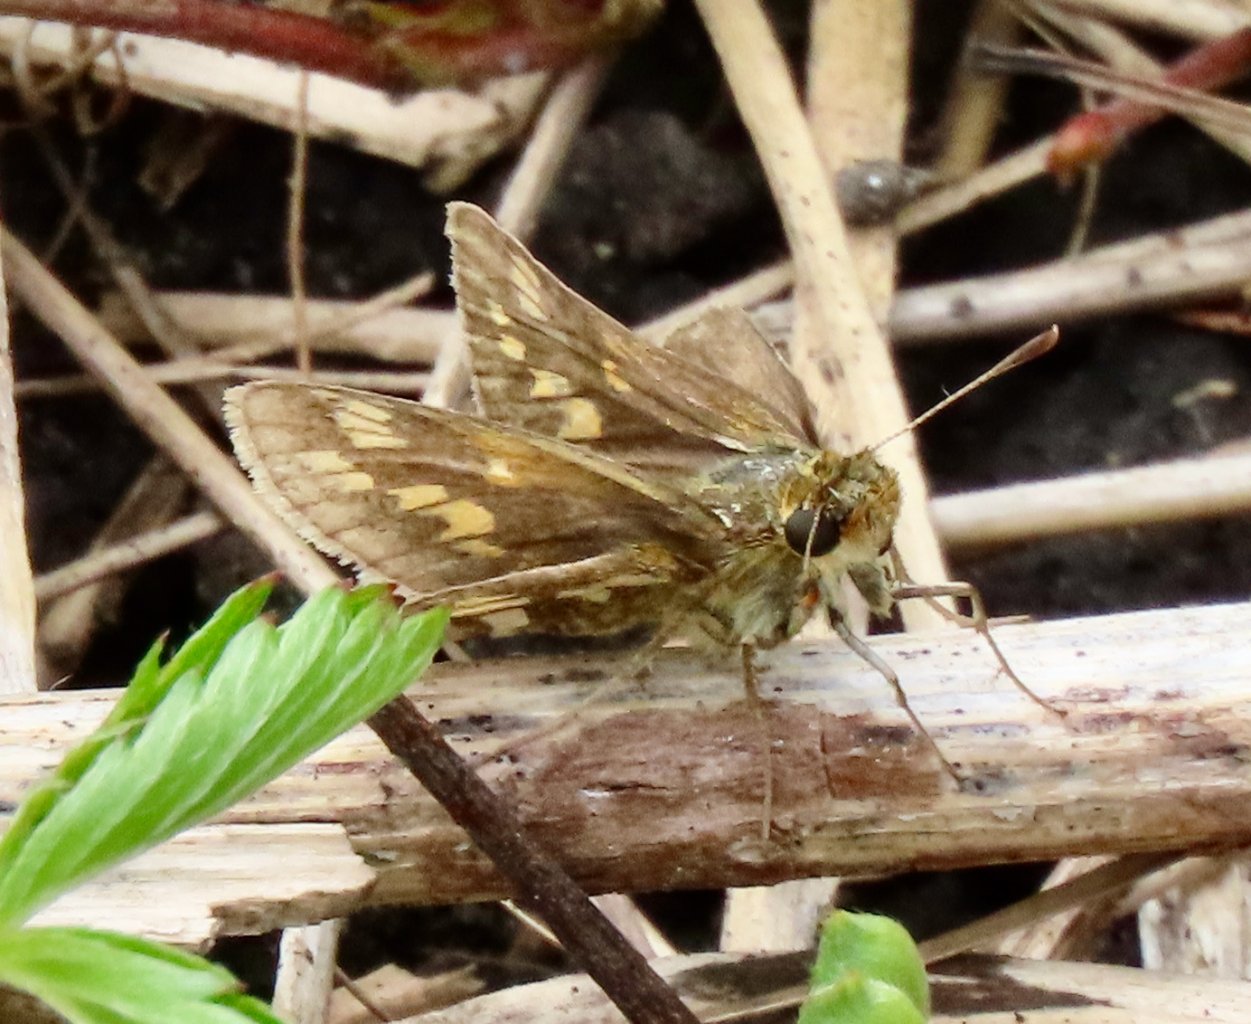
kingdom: Animalia
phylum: Arthropoda
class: Insecta
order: Lepidoptera
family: Hesperiidae
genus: Polites
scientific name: Polites coras
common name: Peck's Skipper
